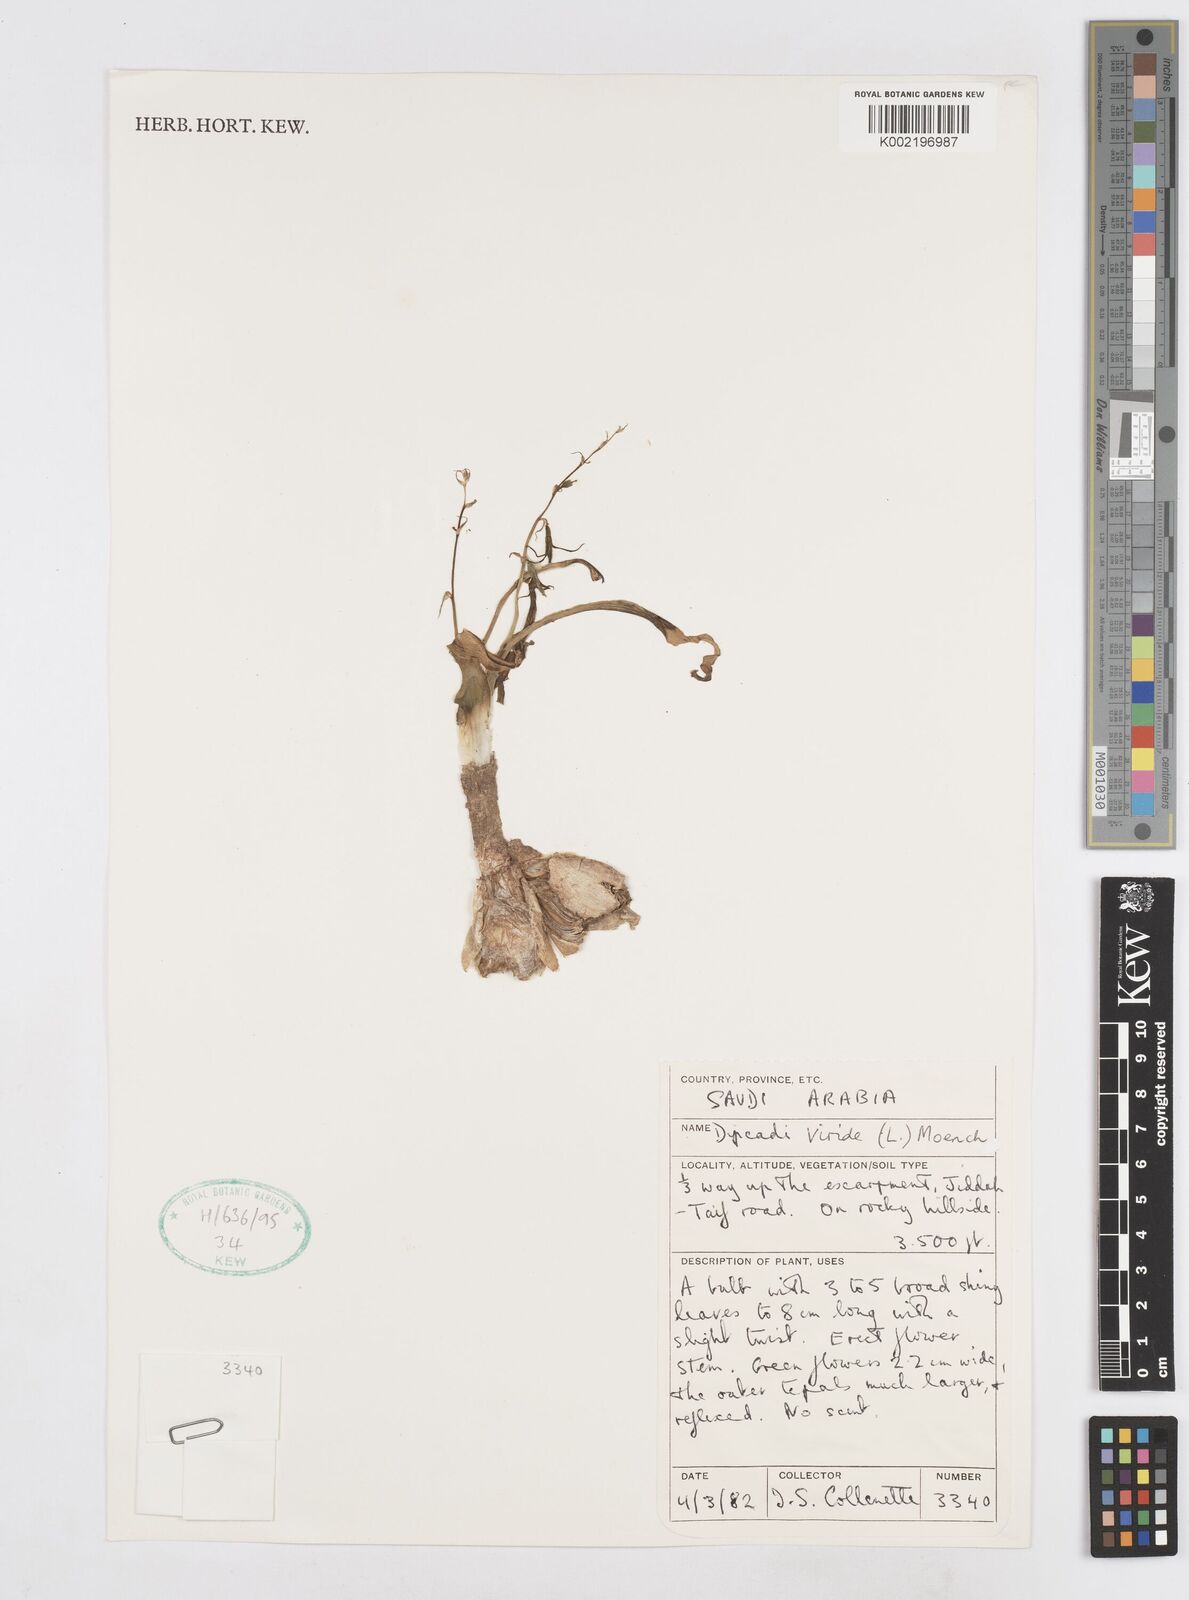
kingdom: Plantae
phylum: Tracheophyta
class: Liliopsida
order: Asparagales
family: Asparagaceae
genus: Dipcadi
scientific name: Dipcadi viride
